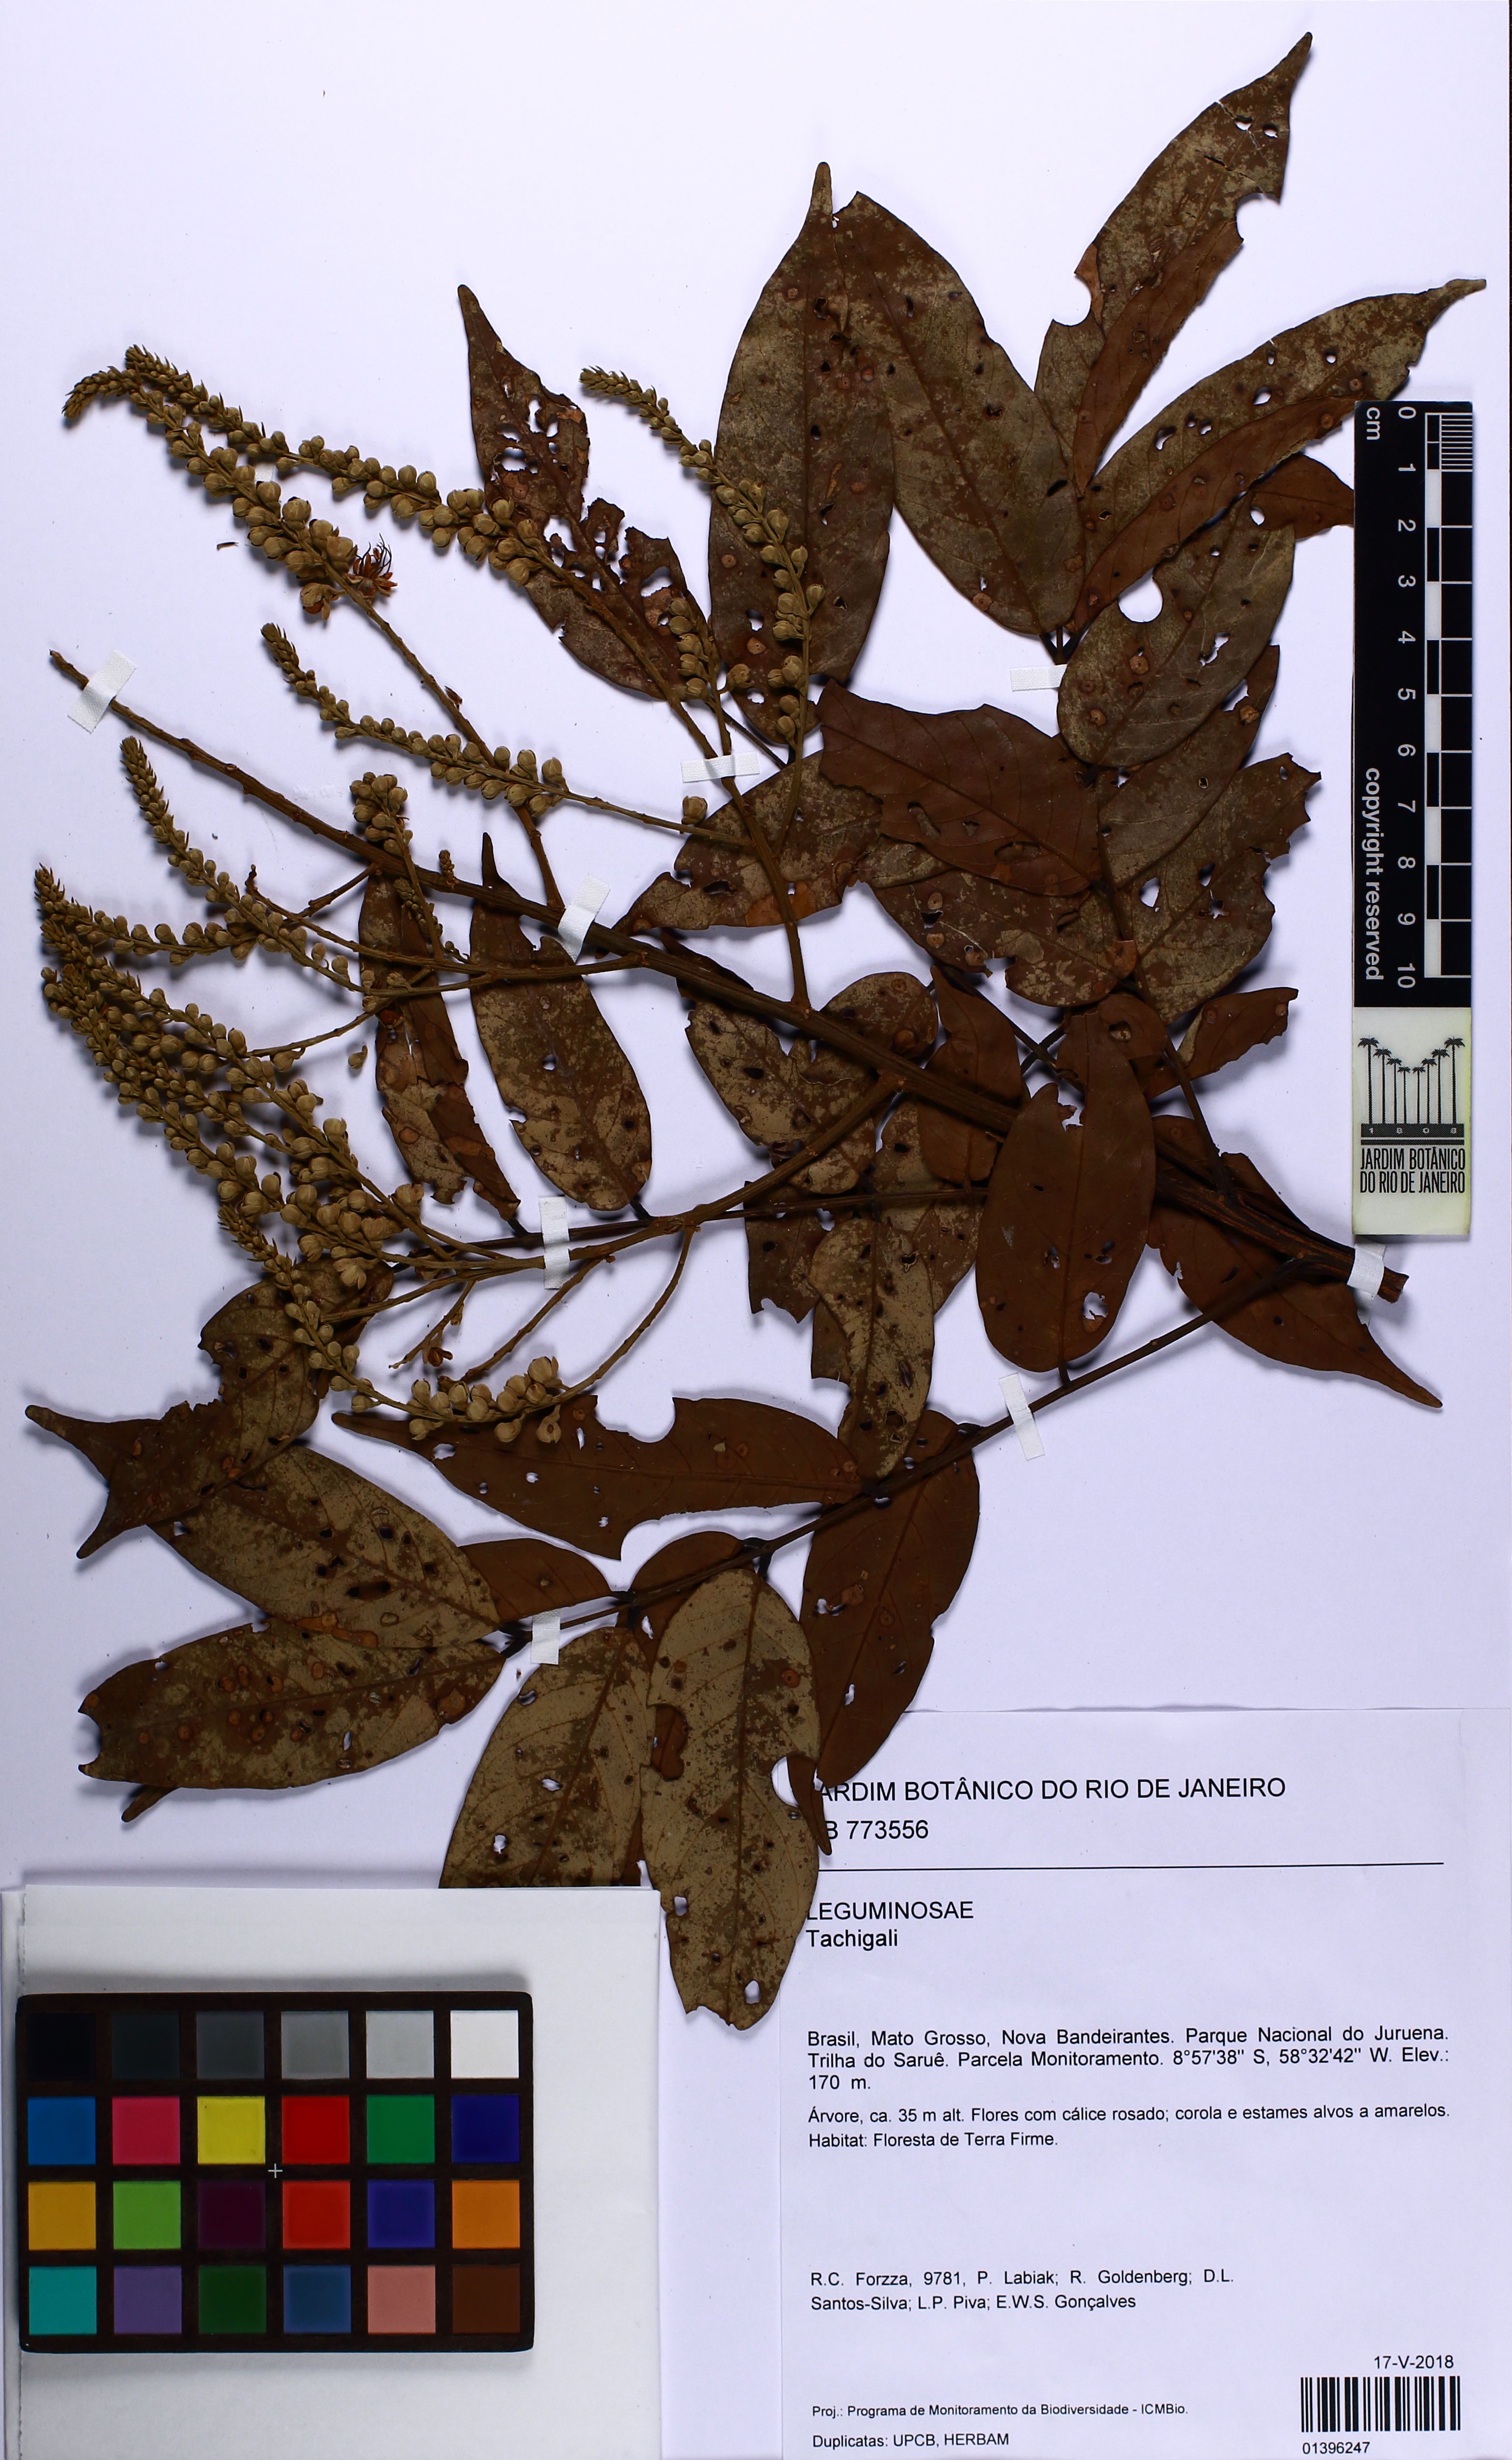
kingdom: Plantae
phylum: Tracheophyta
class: Magnoliopsida
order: Fabales
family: Fabaceae
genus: Tachigali
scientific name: Tachigali
